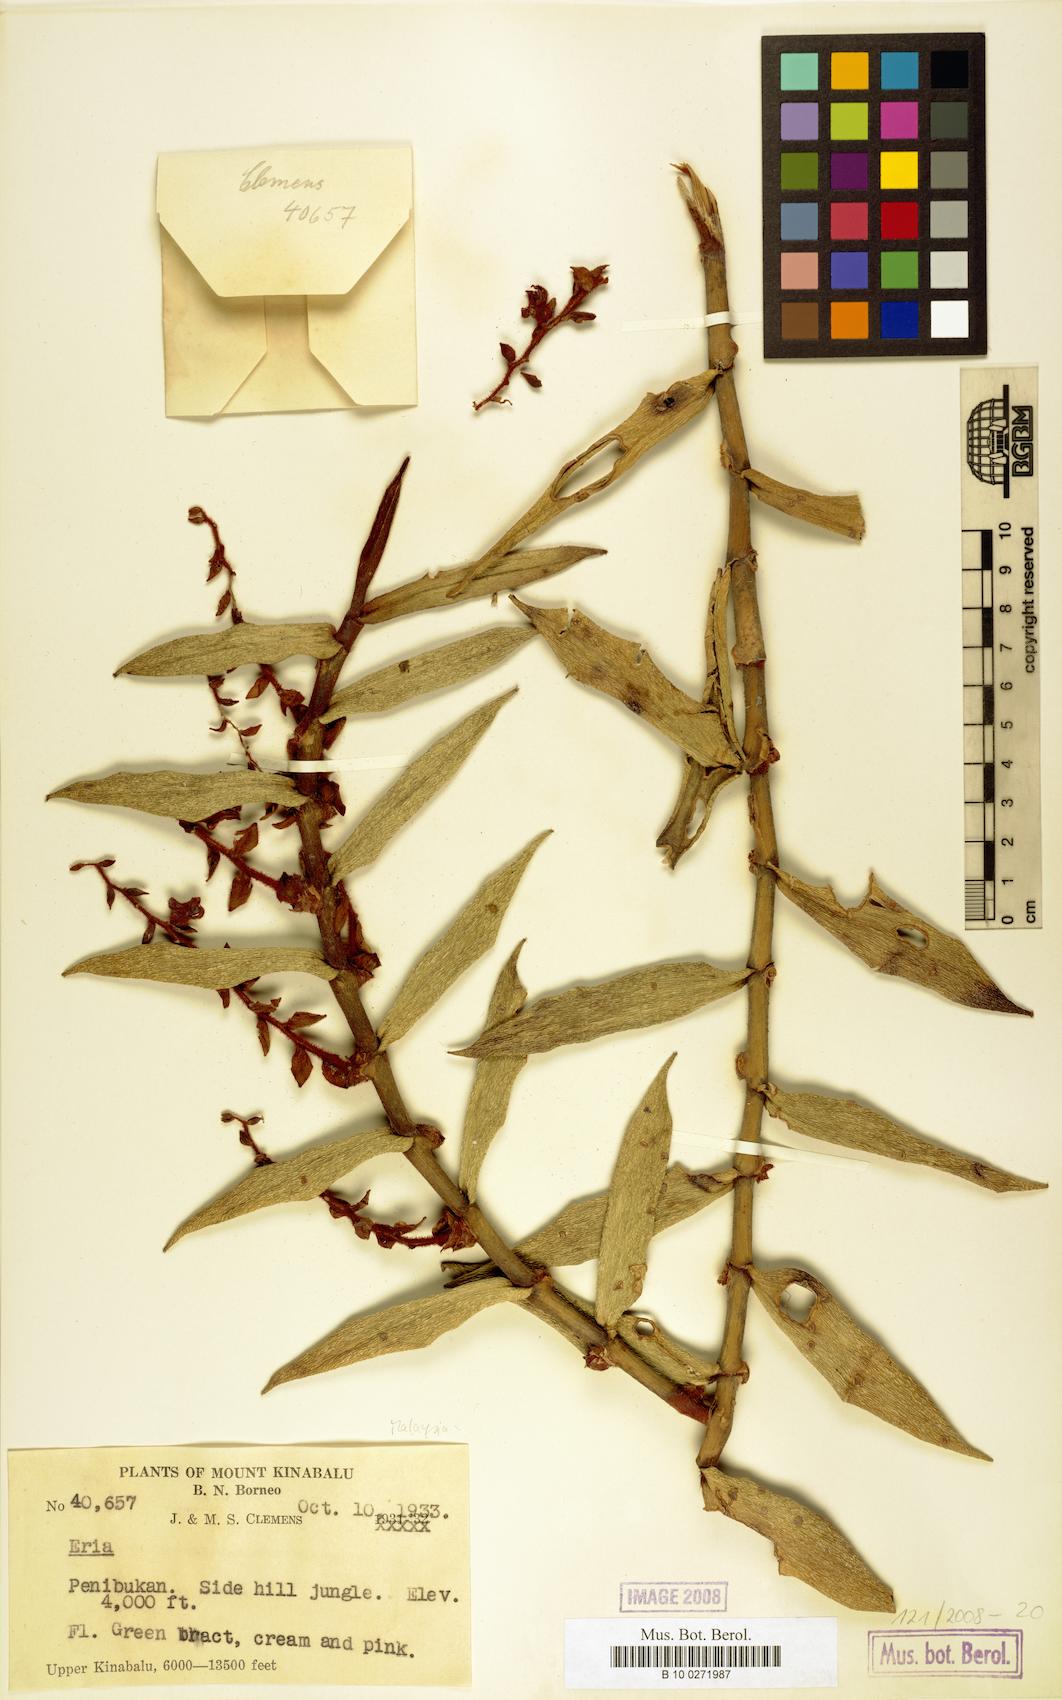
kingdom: Plantae
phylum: Tracheophyta
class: Liliopsida
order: Asparagales
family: Orchidaceae
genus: Eria
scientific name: Eria
